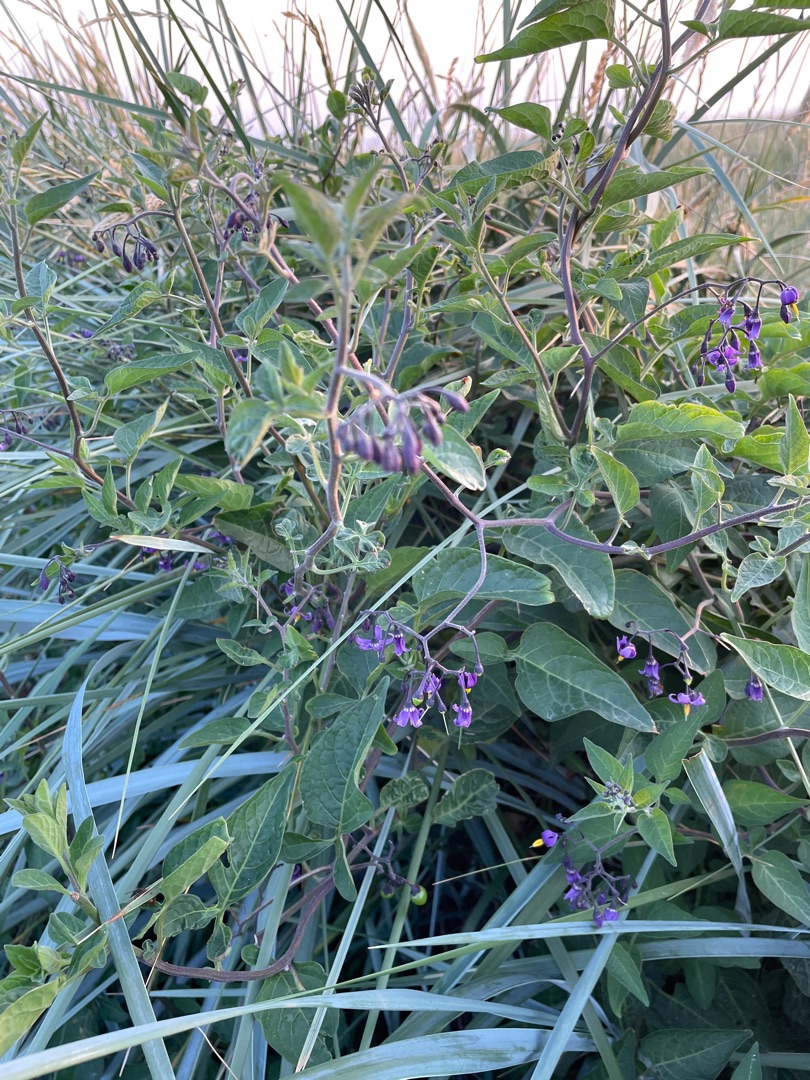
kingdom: Plantae
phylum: Tracheophyta
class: Magnoliopsida
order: Solanales
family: Solanaceae
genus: Solanum
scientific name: Solanum dulcamara
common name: Bittersød natskygge
